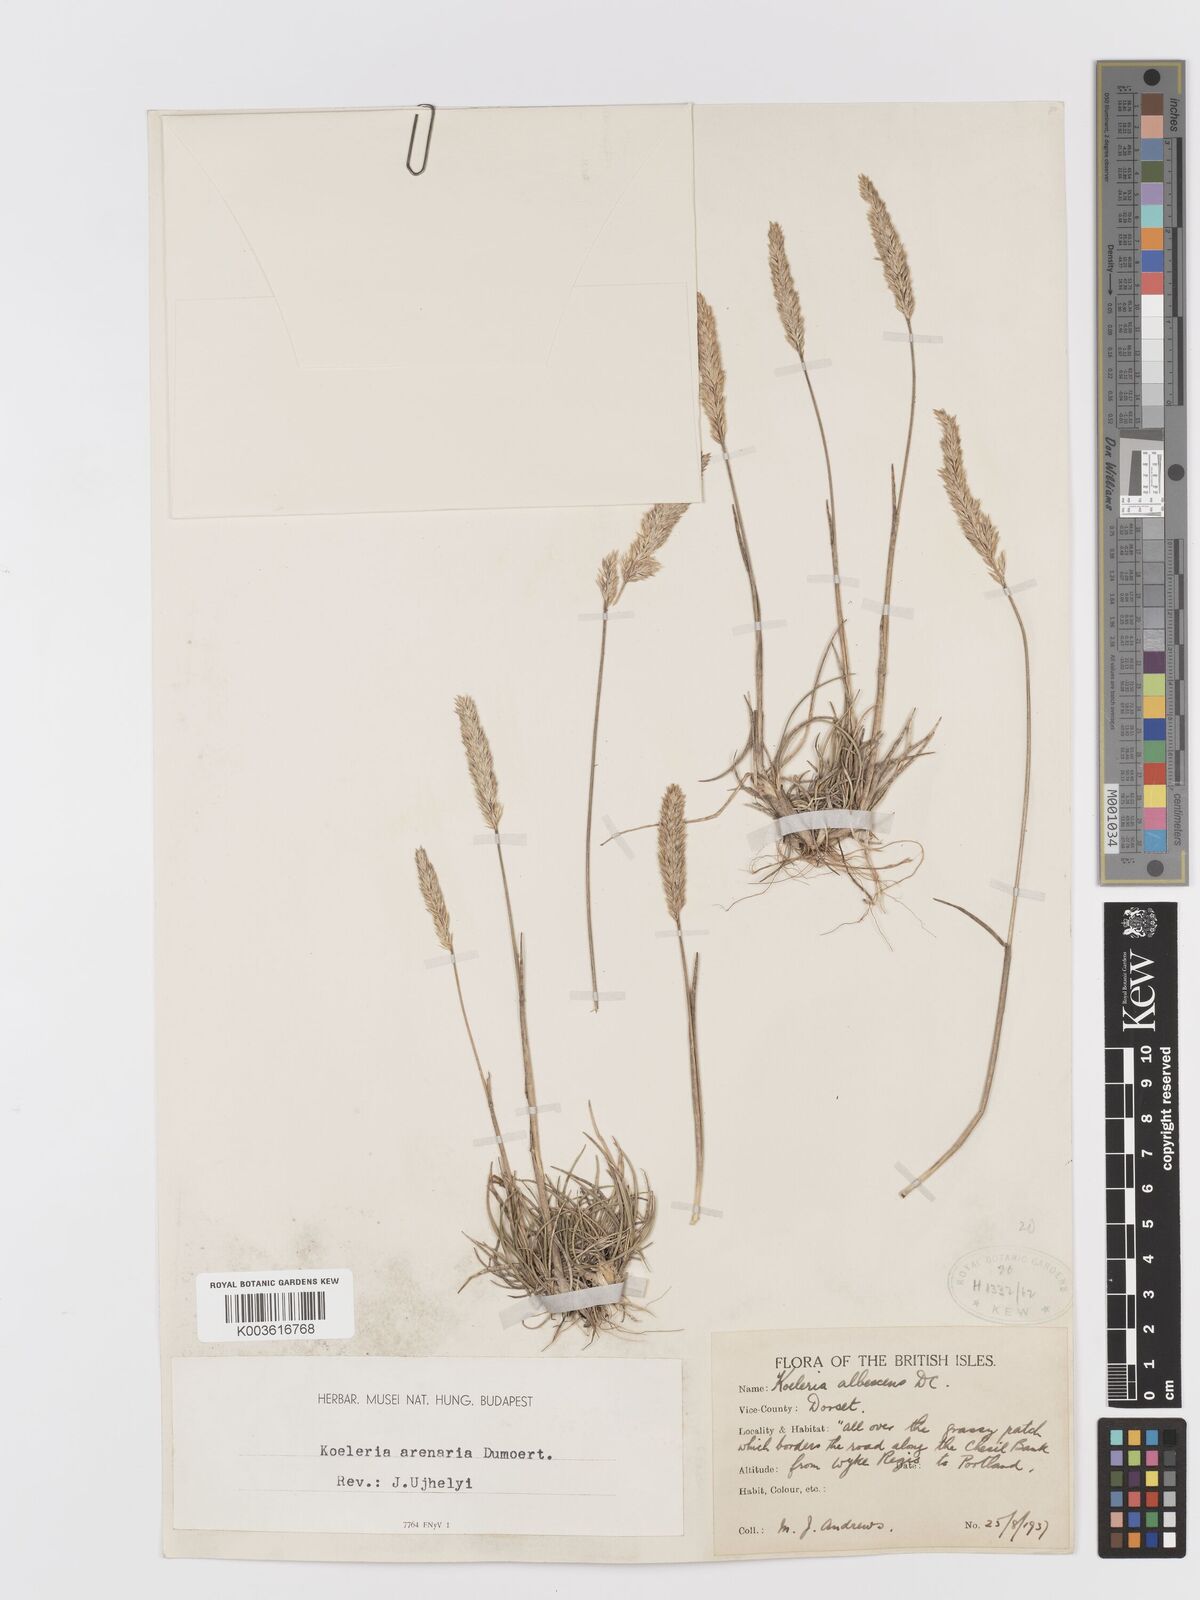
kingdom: Plantae
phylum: Tracheophyta
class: Liliopsida
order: Poales
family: Poaceae
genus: Koeleria
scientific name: Koeleria
